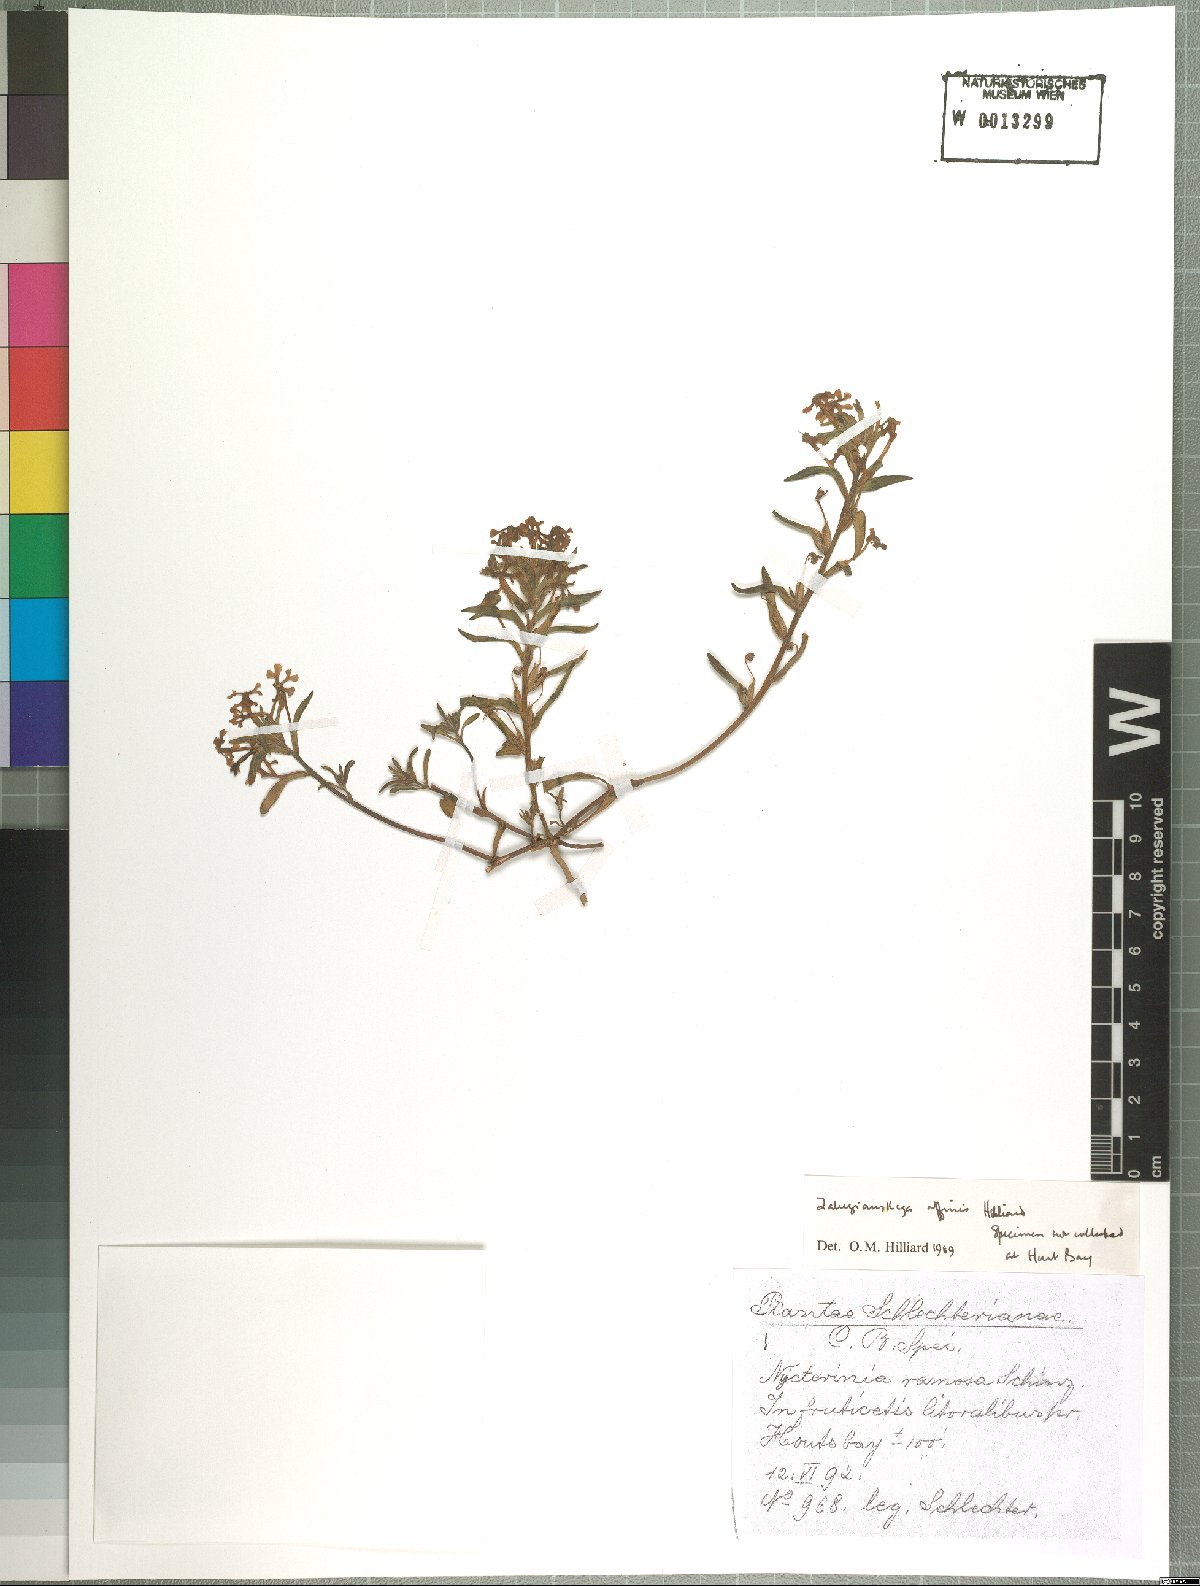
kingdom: Plantae
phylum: Tracheophyta
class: Magnoliopsida
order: Lamiales
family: Scrophulariaceae
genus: Zaluzianskya
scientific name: Zaluzianskya affinis
